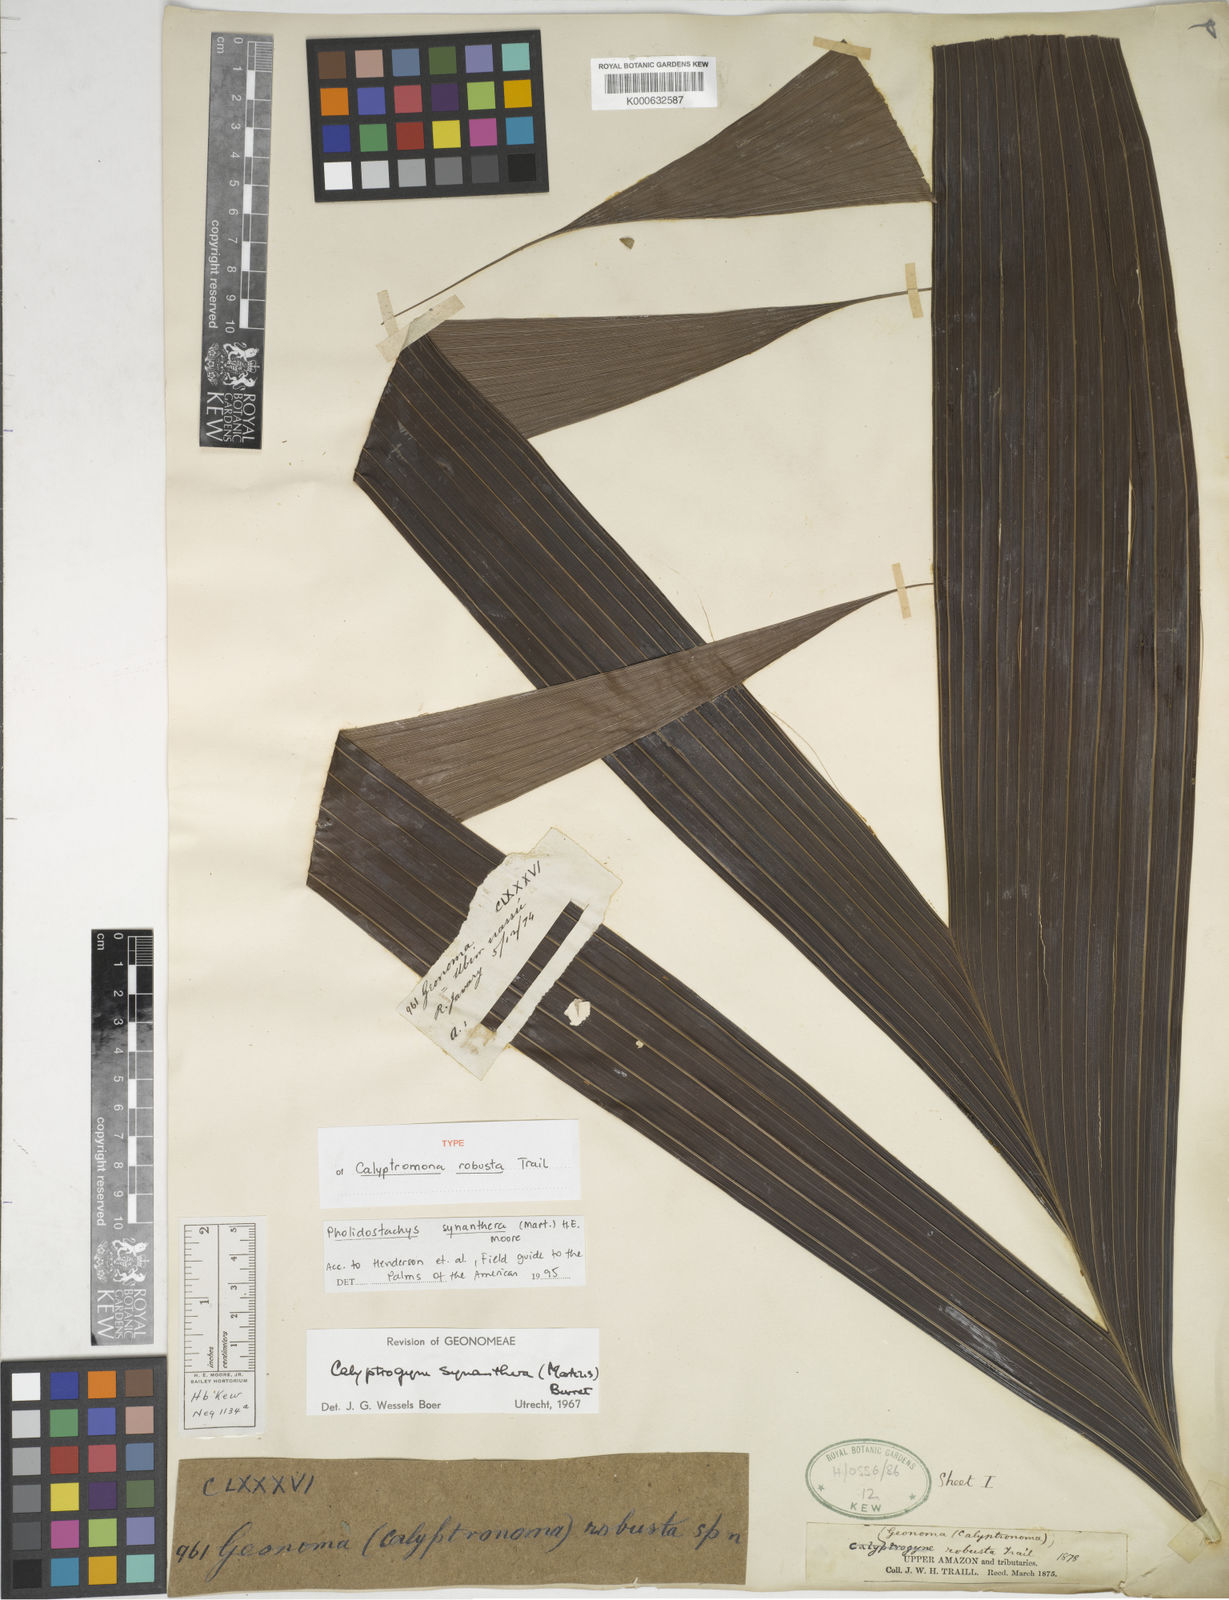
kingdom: Plantae
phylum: Tracheophyta
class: Liliopsida
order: Arecales
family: Arecaceae
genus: Pholidostachys
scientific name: Pholidostachys synanthera
